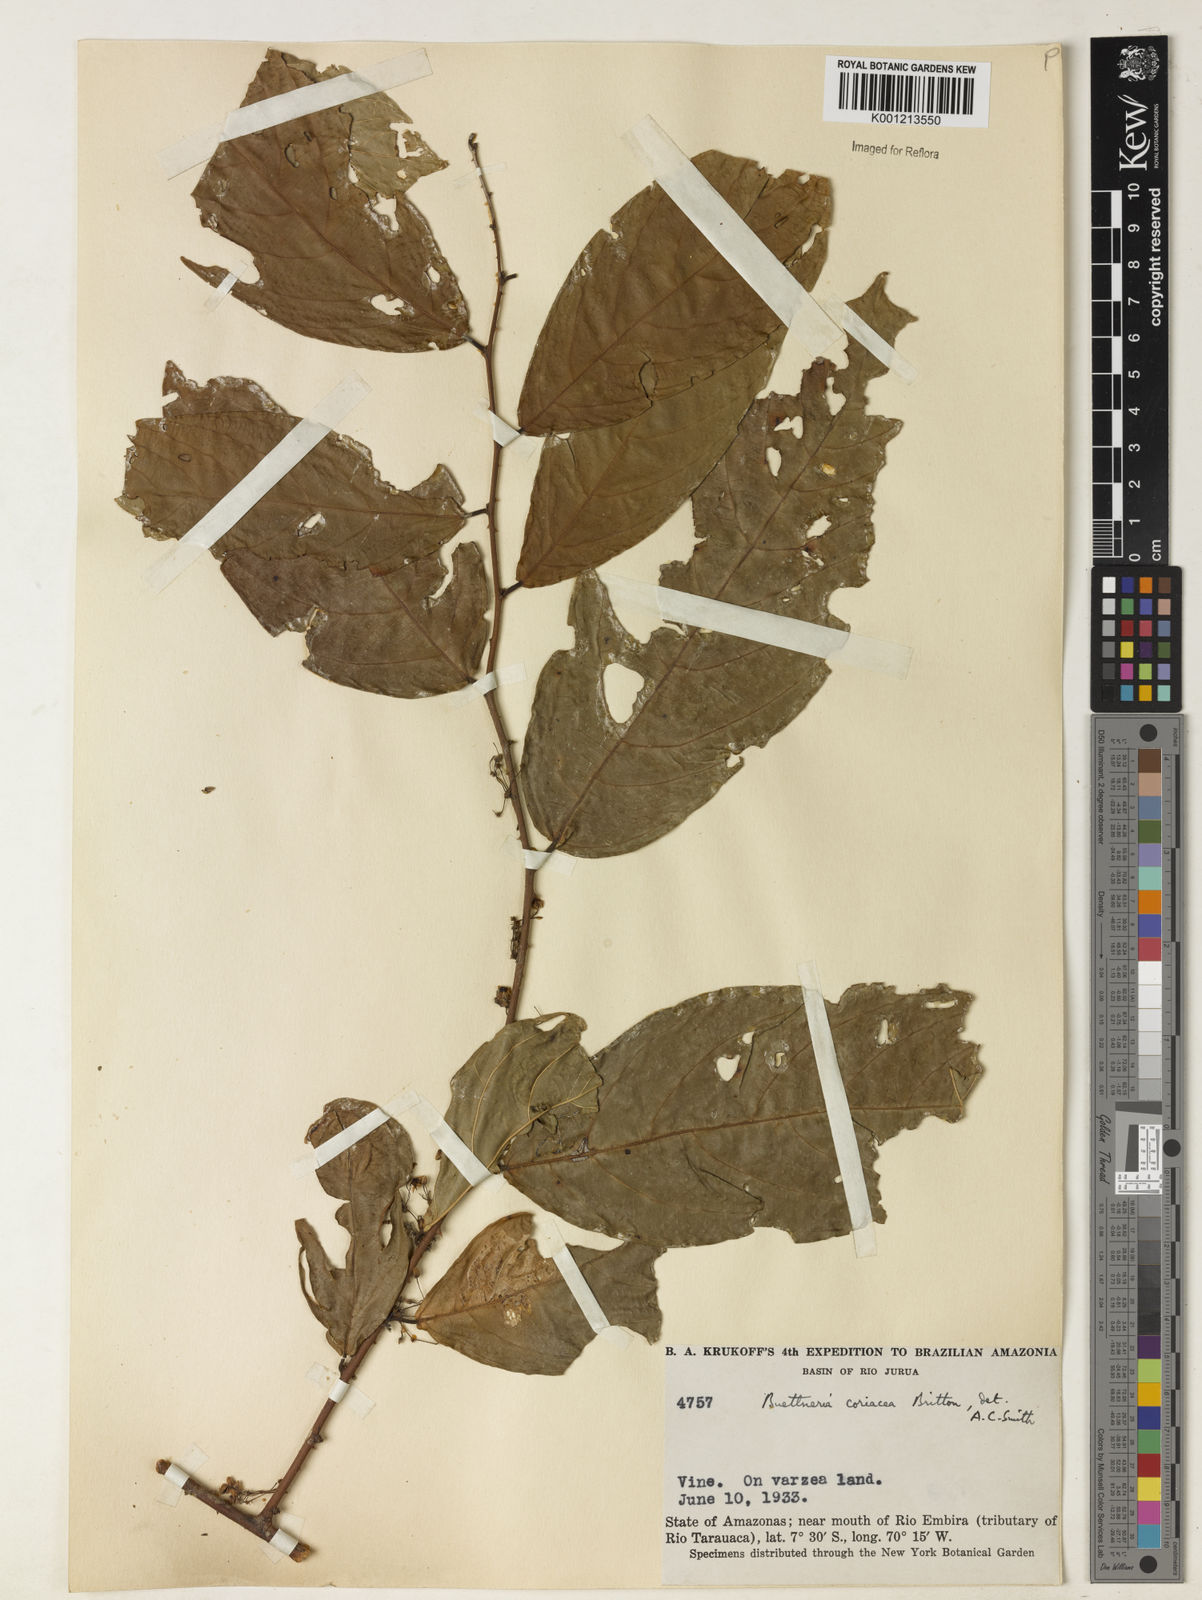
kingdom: Plantae
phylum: Tracheophyta
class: Magnoliopsida
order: Malvales
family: Malvaceae
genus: Byttneria
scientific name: Byttneria coriacea
